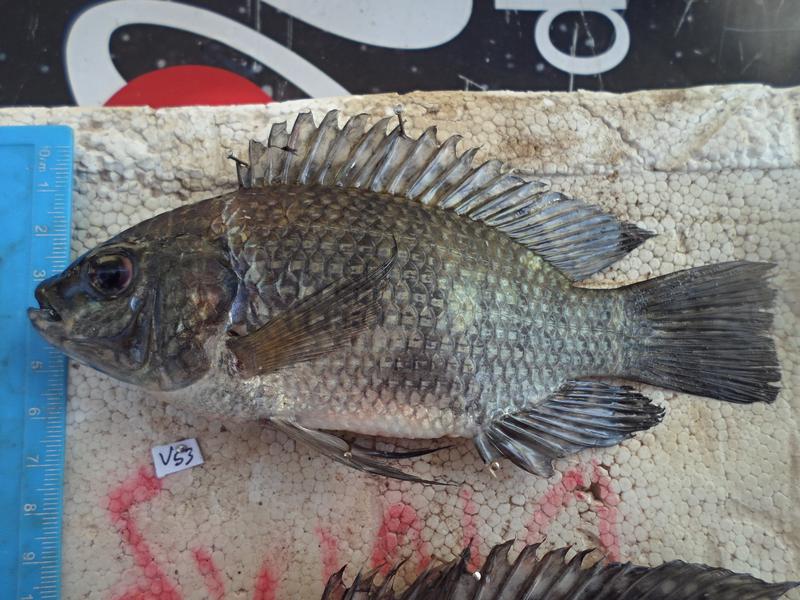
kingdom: Animalia
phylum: Chordata
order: Perciformes
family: Cichlidae
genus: Oreochromis
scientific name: Oreochromis leucostictus
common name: Blue spotted tilapia
